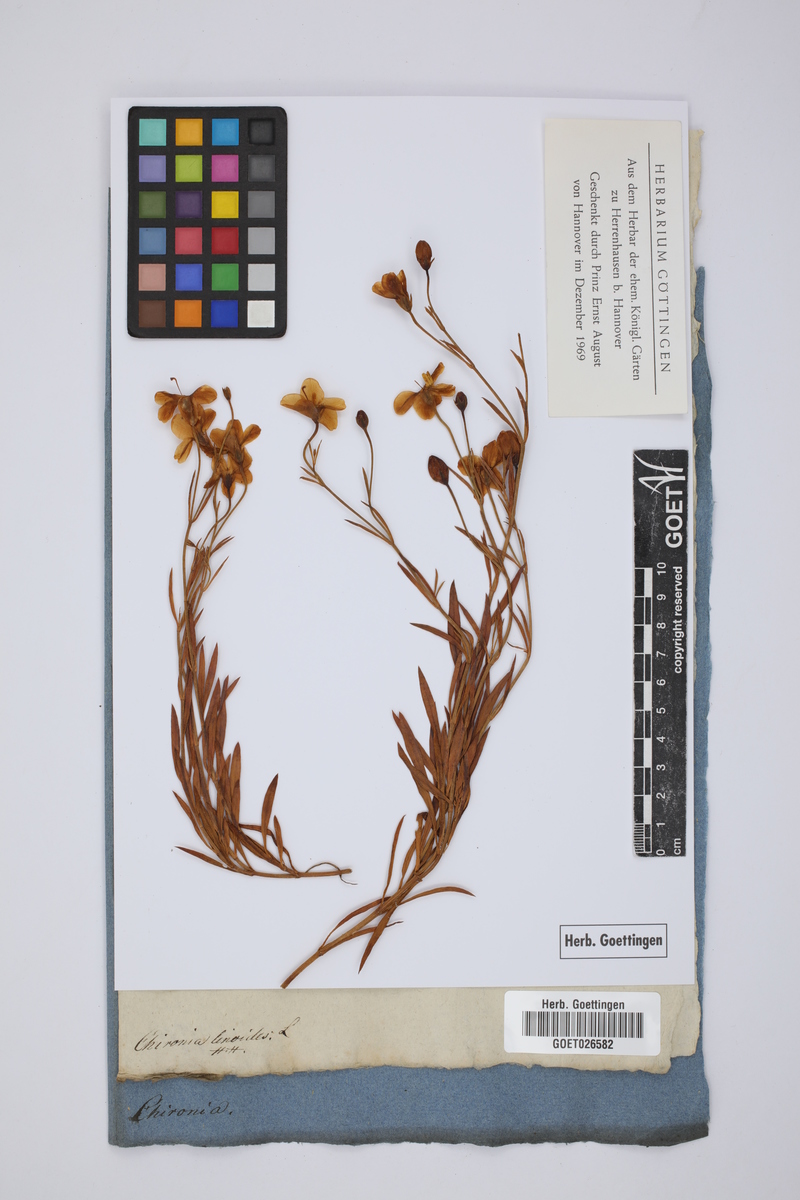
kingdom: Plantae
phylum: Tracheophyta
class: Magnoliopsida
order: Gentianales
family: Gentianaceae
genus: Chironia
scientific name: Chironia linoides
